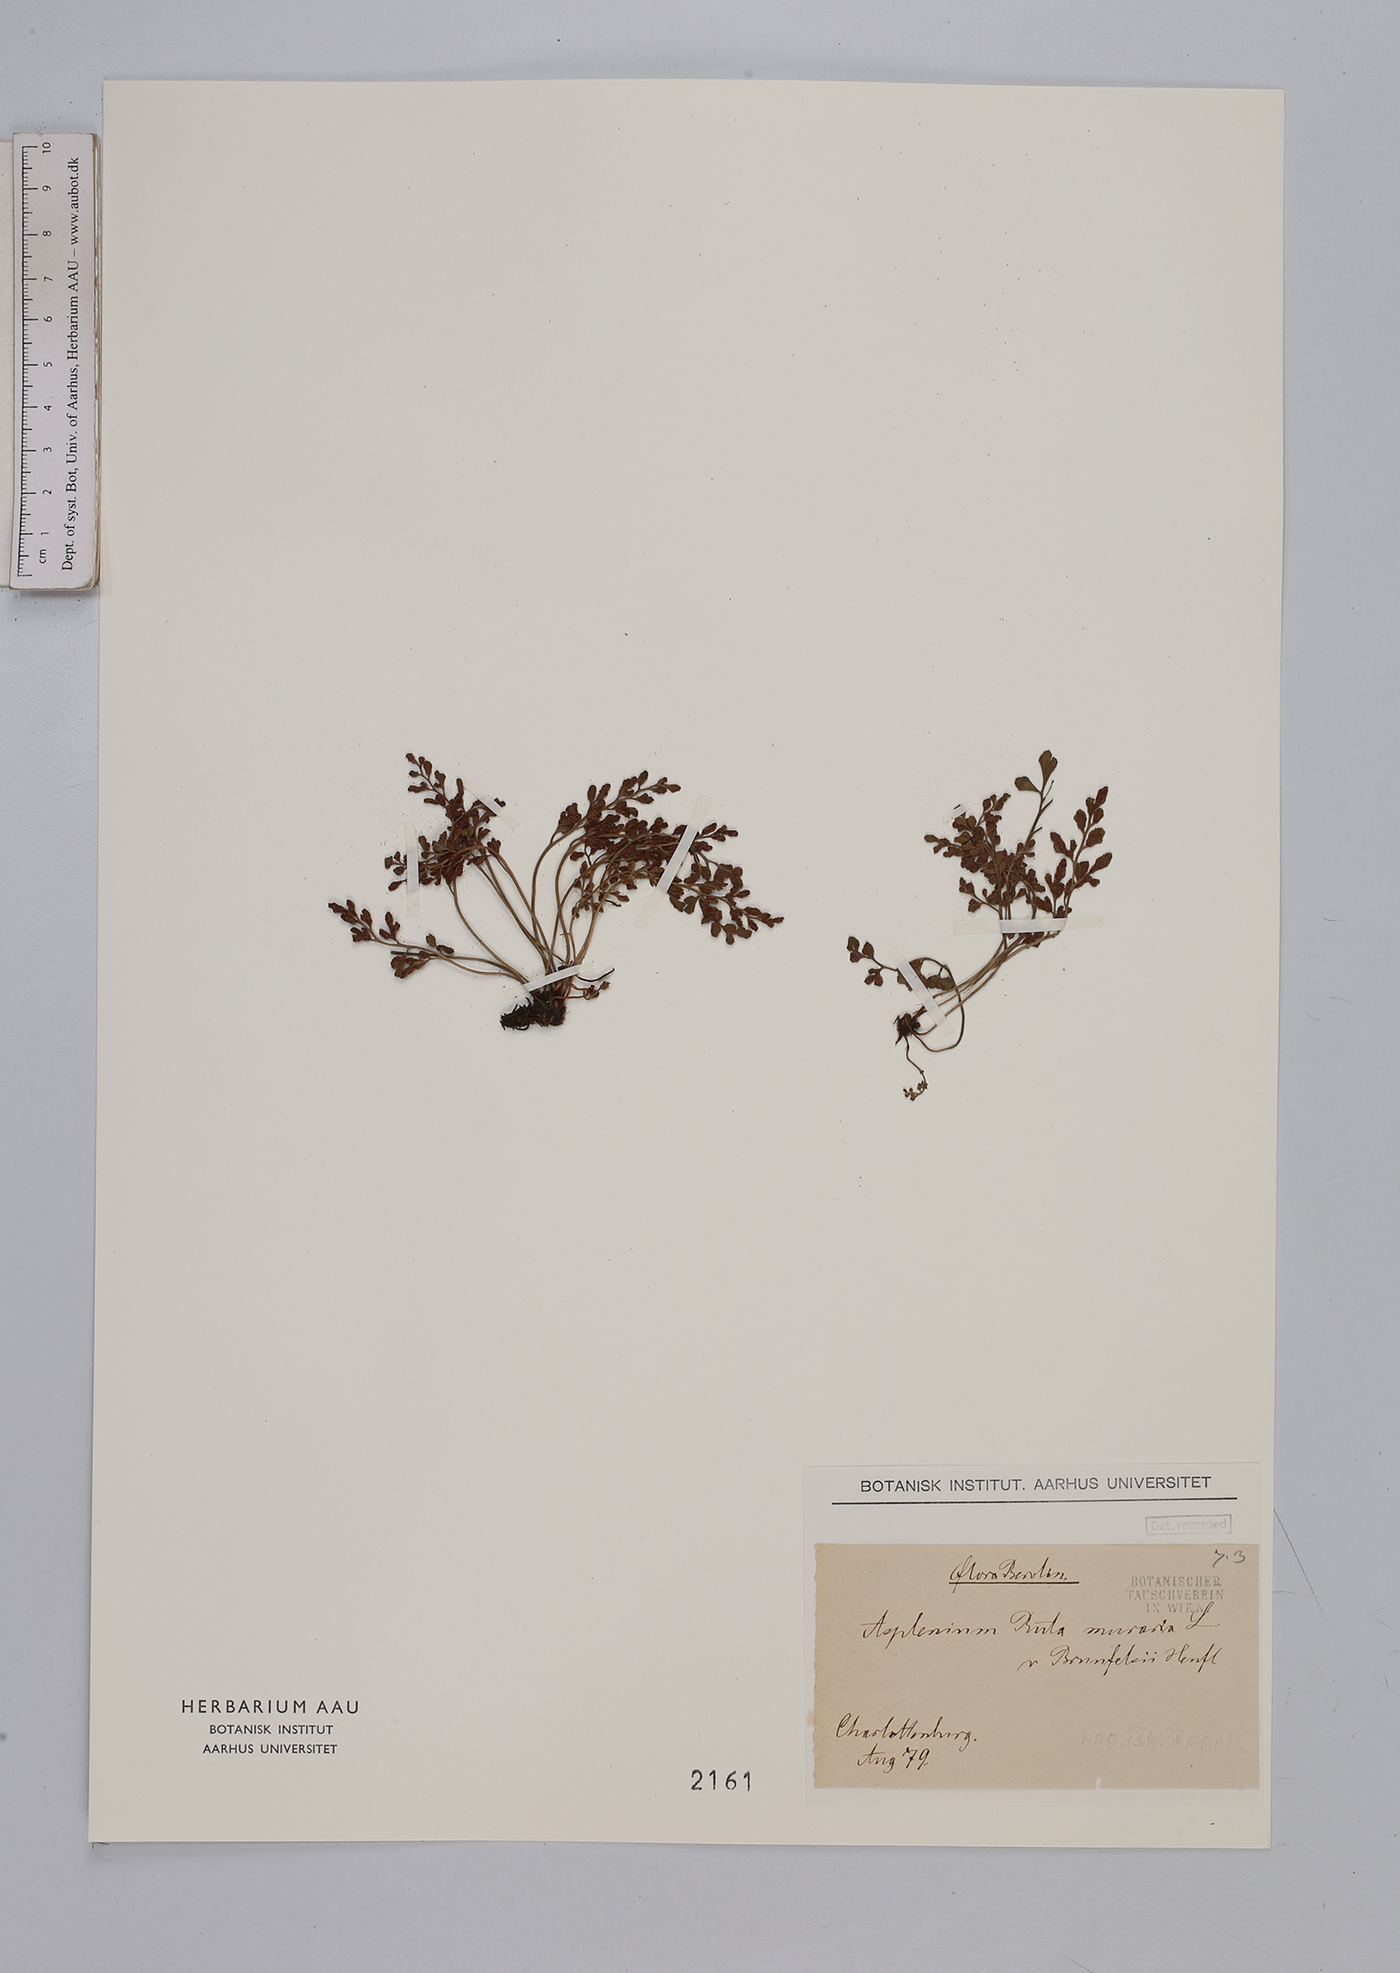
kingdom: Plantae
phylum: Tracheophyta
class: Polypodiopsida
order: Polypodiales
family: Aspleniaceae
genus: Asplenium
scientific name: Asplenium ruta-muraria
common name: Wall-rue
